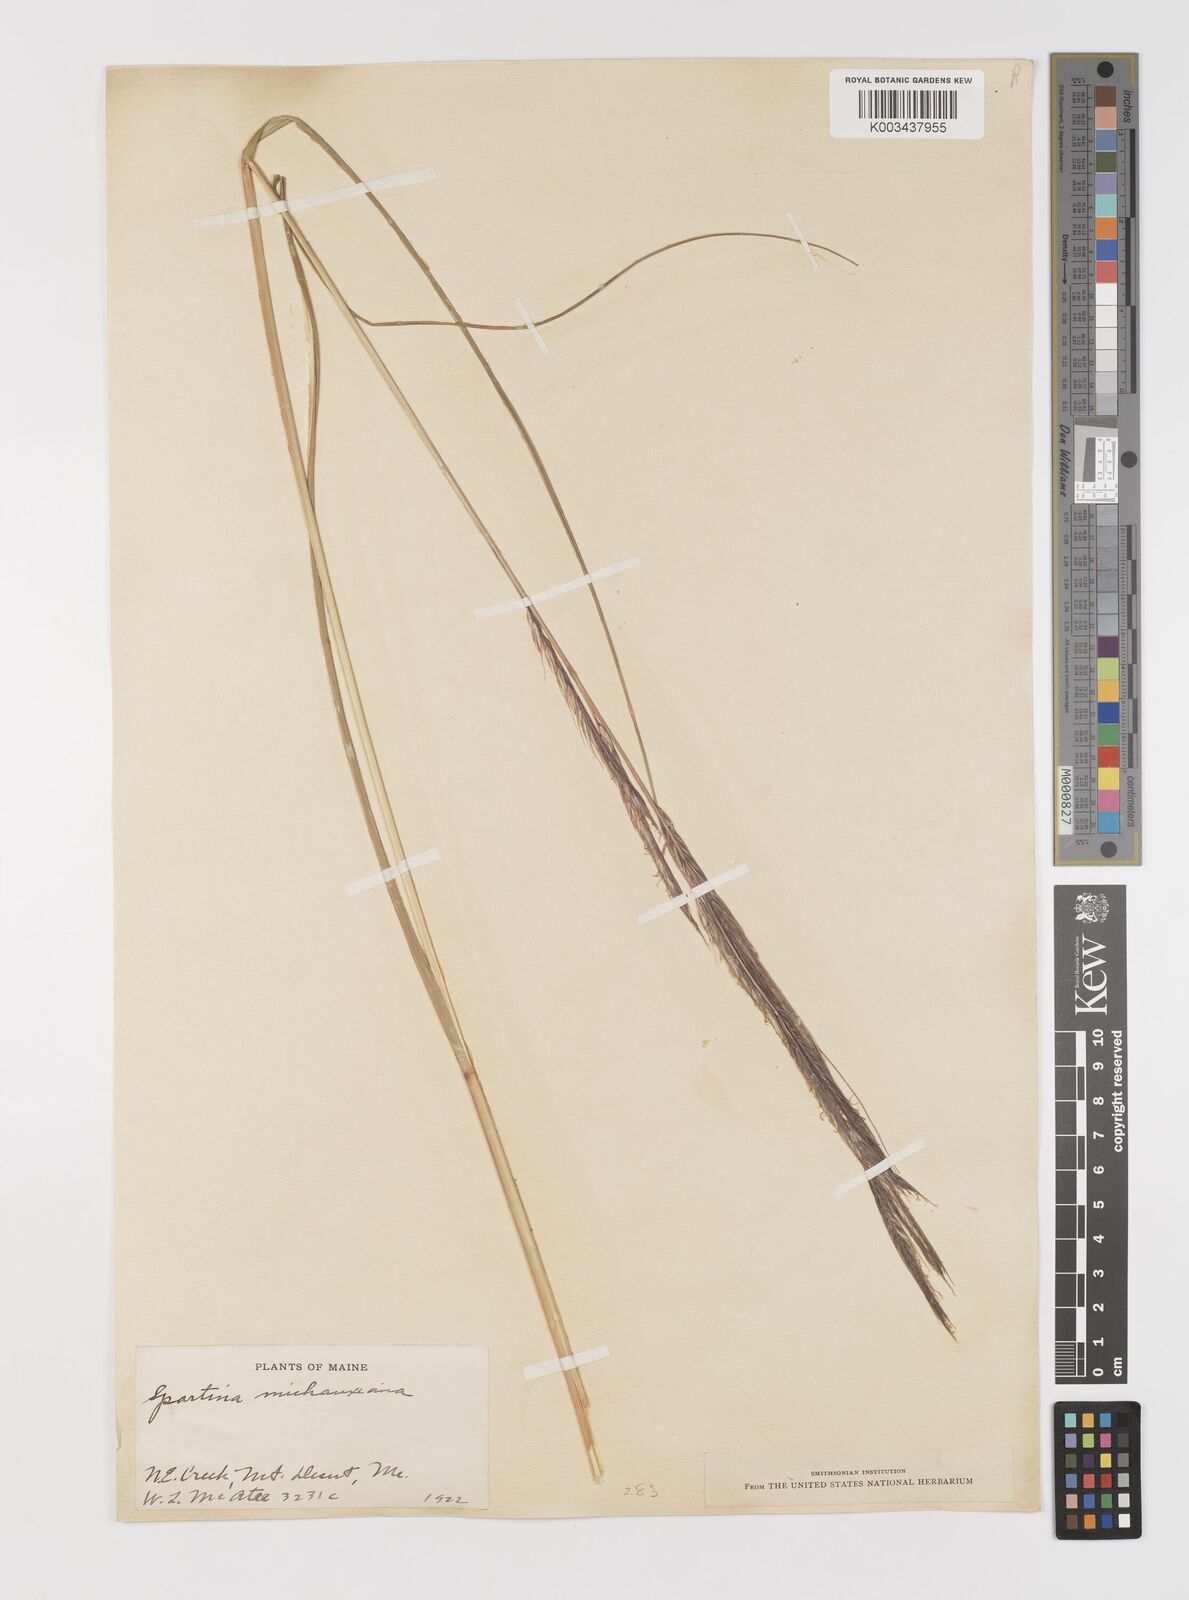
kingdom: Plantae
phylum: Tracheophyta
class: Liliopsida
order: Poales
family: Poaceae
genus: Sporobolus
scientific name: Sporobolus michauxianus
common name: Freshwater cordgrass
